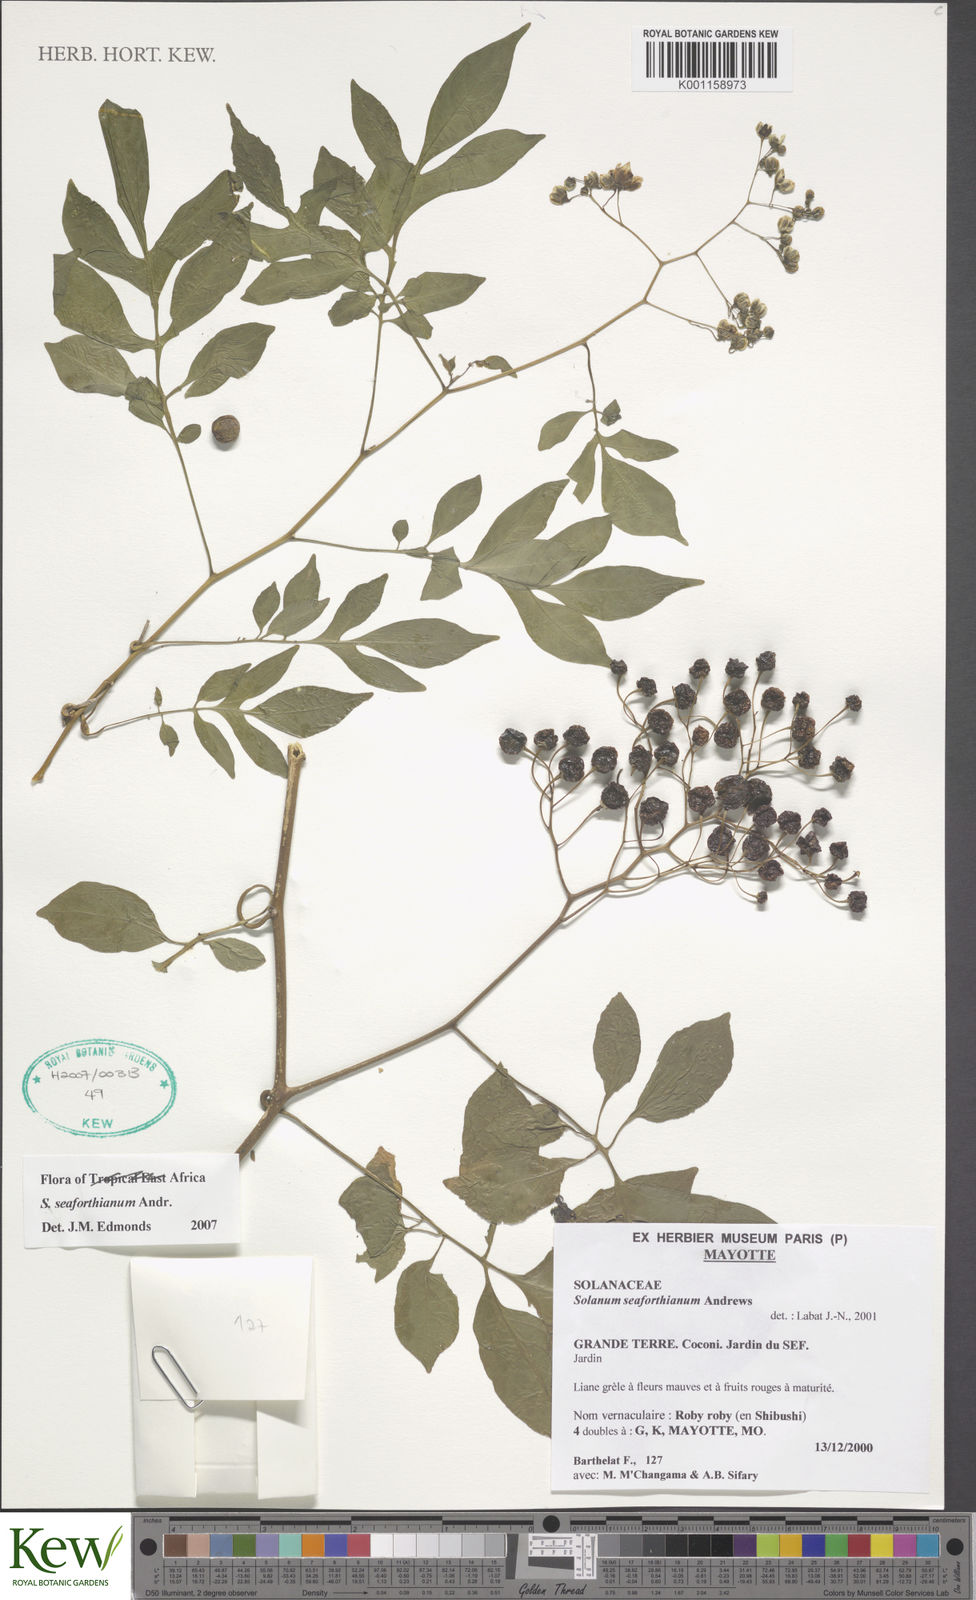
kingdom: Plantae
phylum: Tracheophyta
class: Magnoliopsida
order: Solanales
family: Solanaceae
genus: Solanum
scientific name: Solanum seaforthianum
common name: Brazilian nightshade
